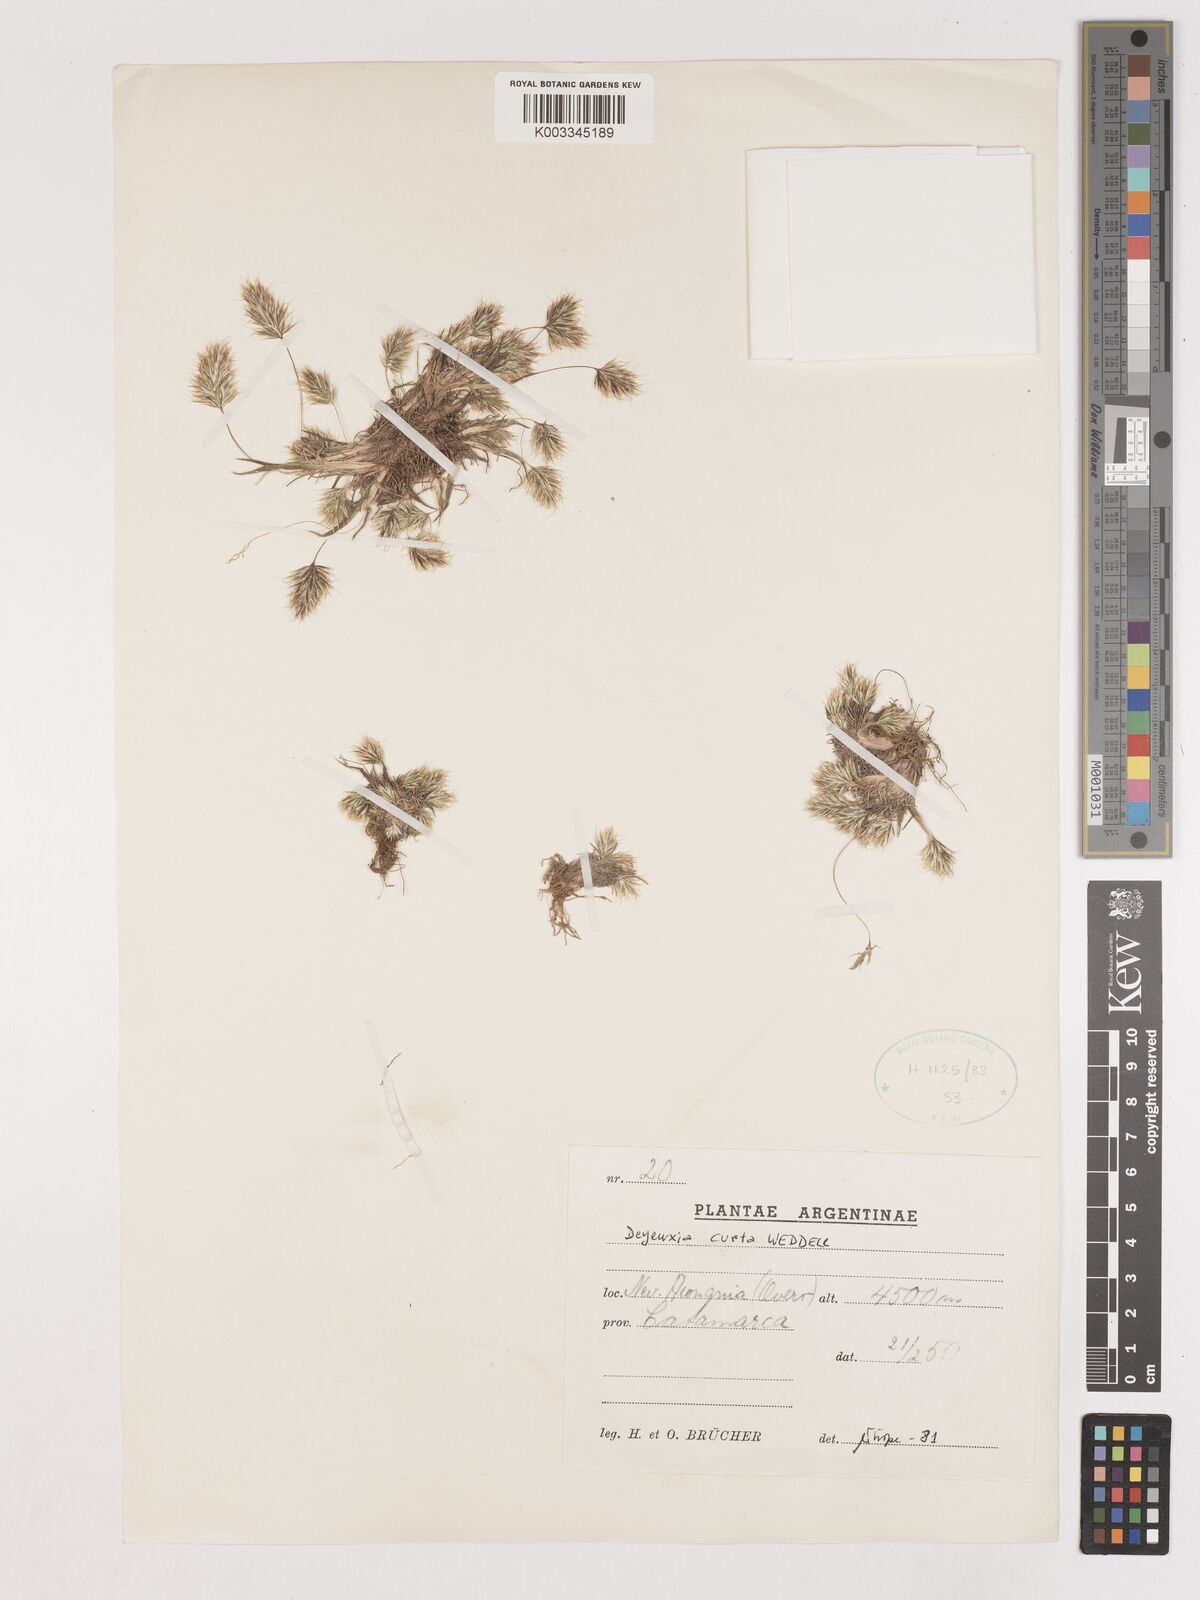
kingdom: Plantae
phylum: Tracheophyta
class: Liliopsida
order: Poales
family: Poaceae
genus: Cinnagrostis
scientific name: Cinnagrostis curta
